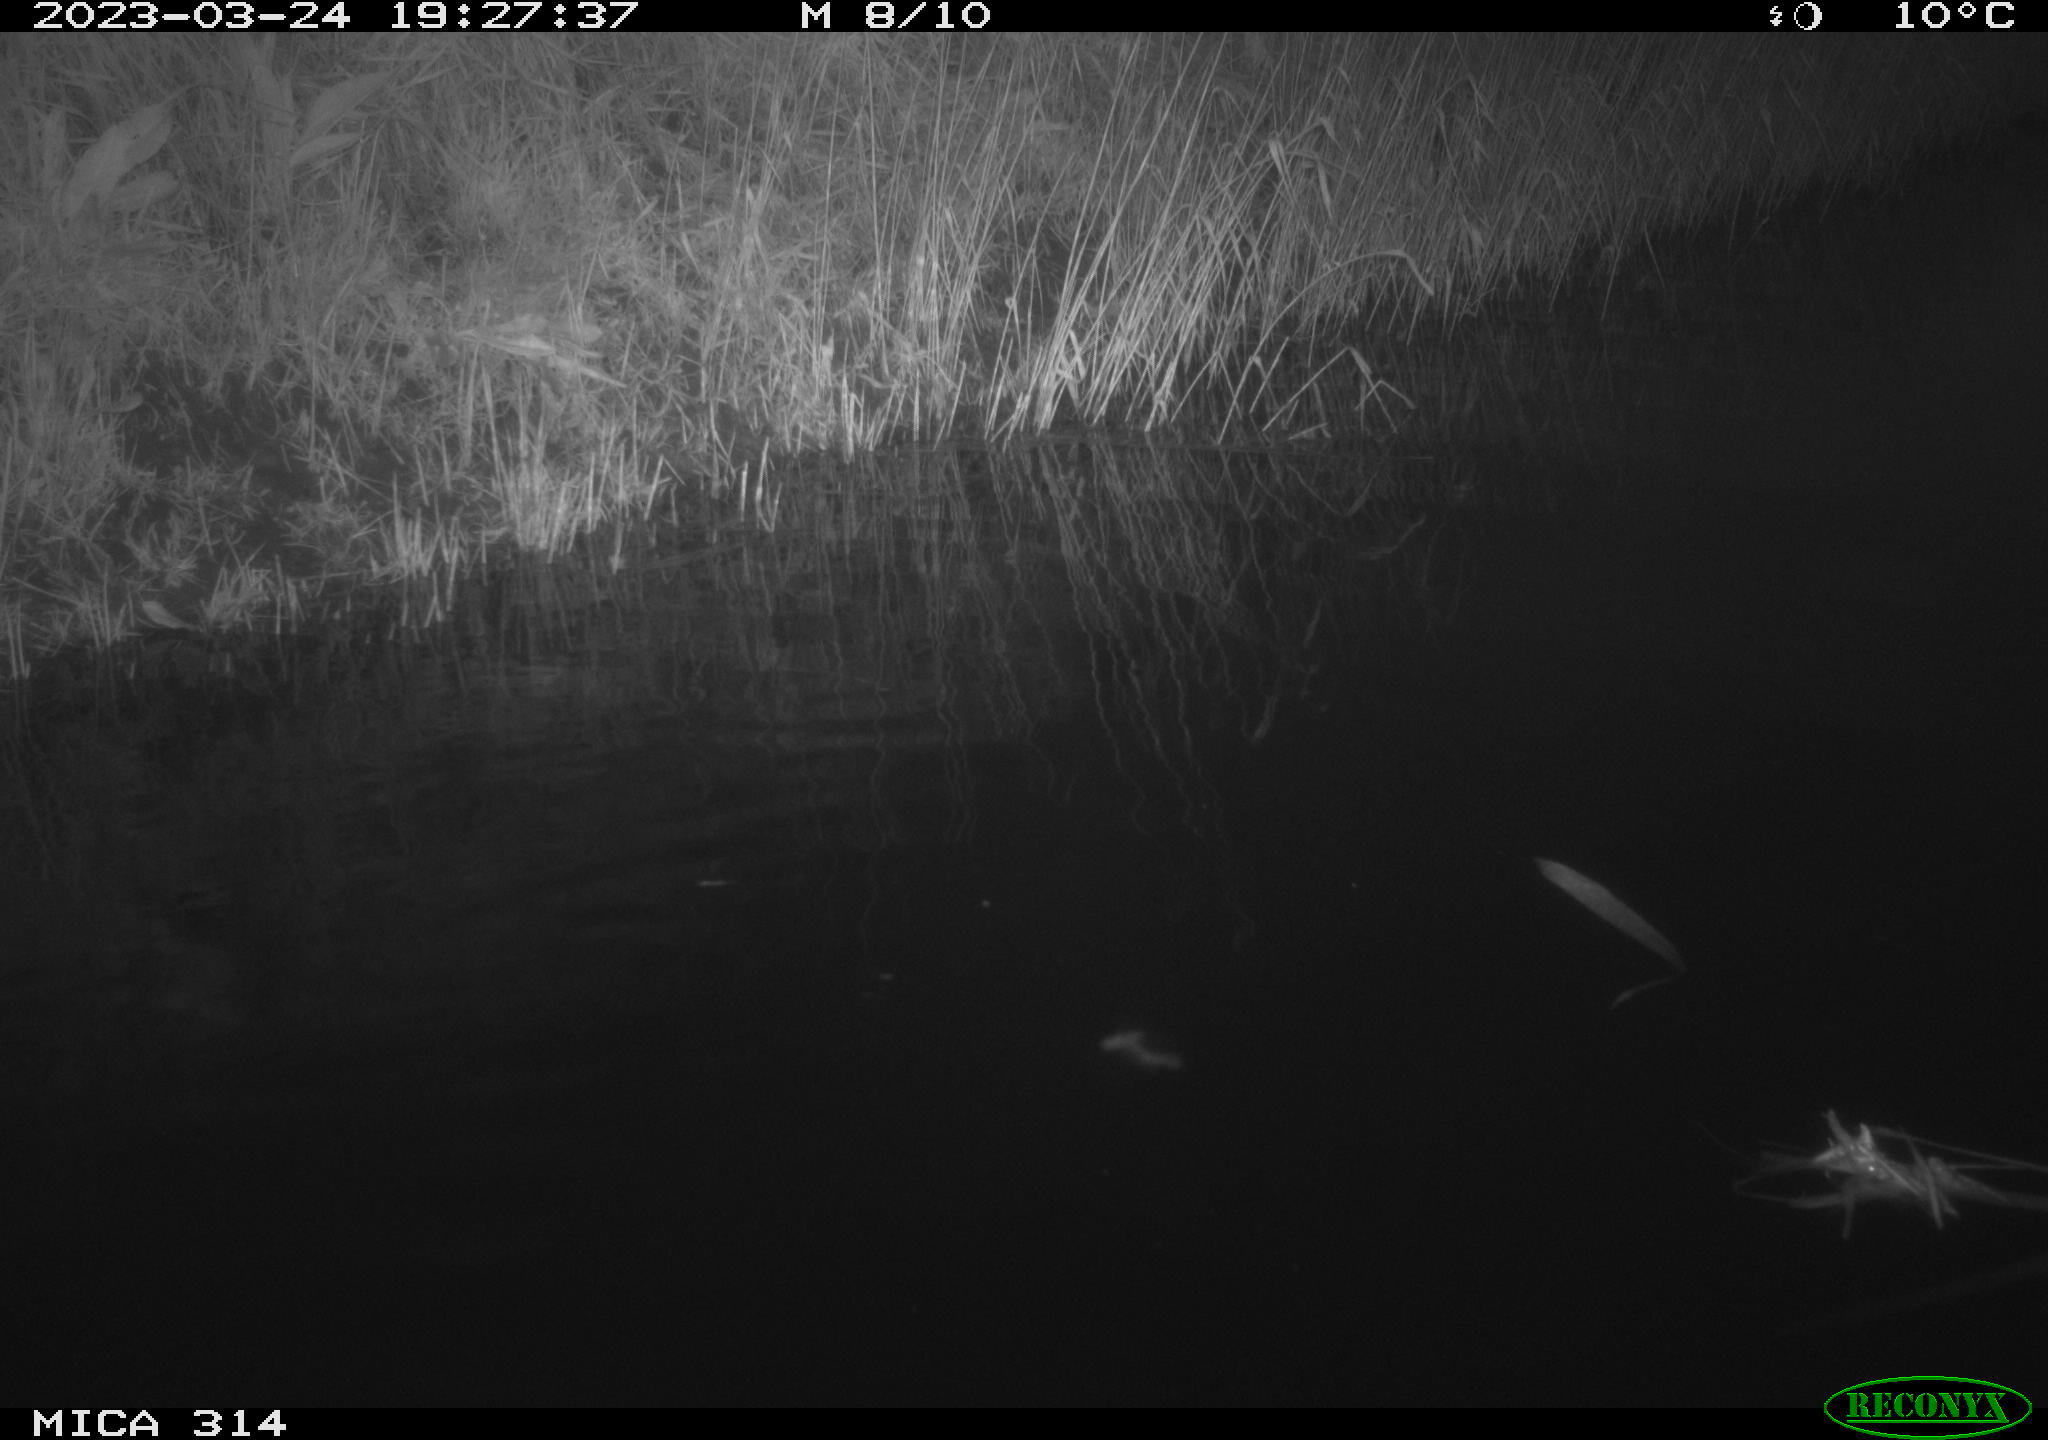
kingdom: Animalia
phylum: Chordata
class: Aves
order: Anseriformes
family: Anatidae
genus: Anas
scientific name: Anas
